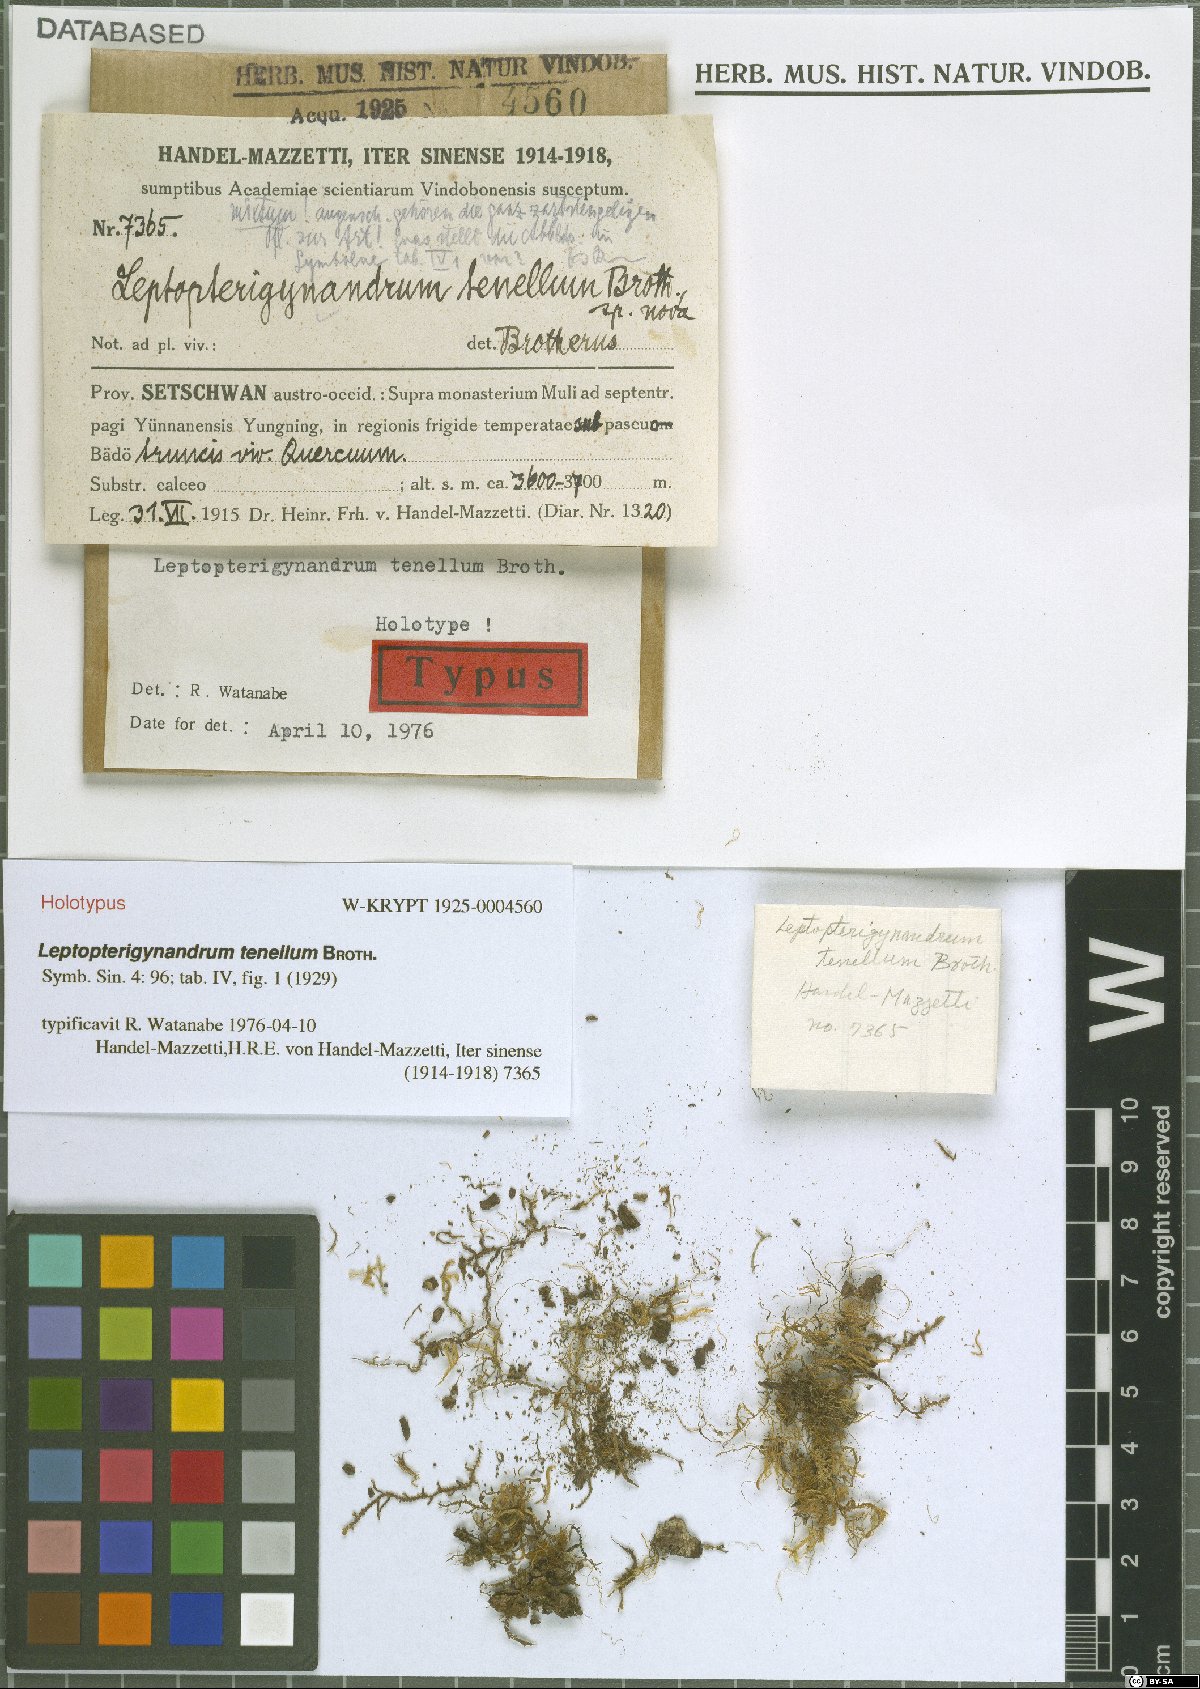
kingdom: Plantae
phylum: Bryophyta
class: Bryopsida
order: Hypnales
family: Taxiphyllaceae
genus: Leptopterigynandrum
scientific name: Leptopterigynandrum tenellum
